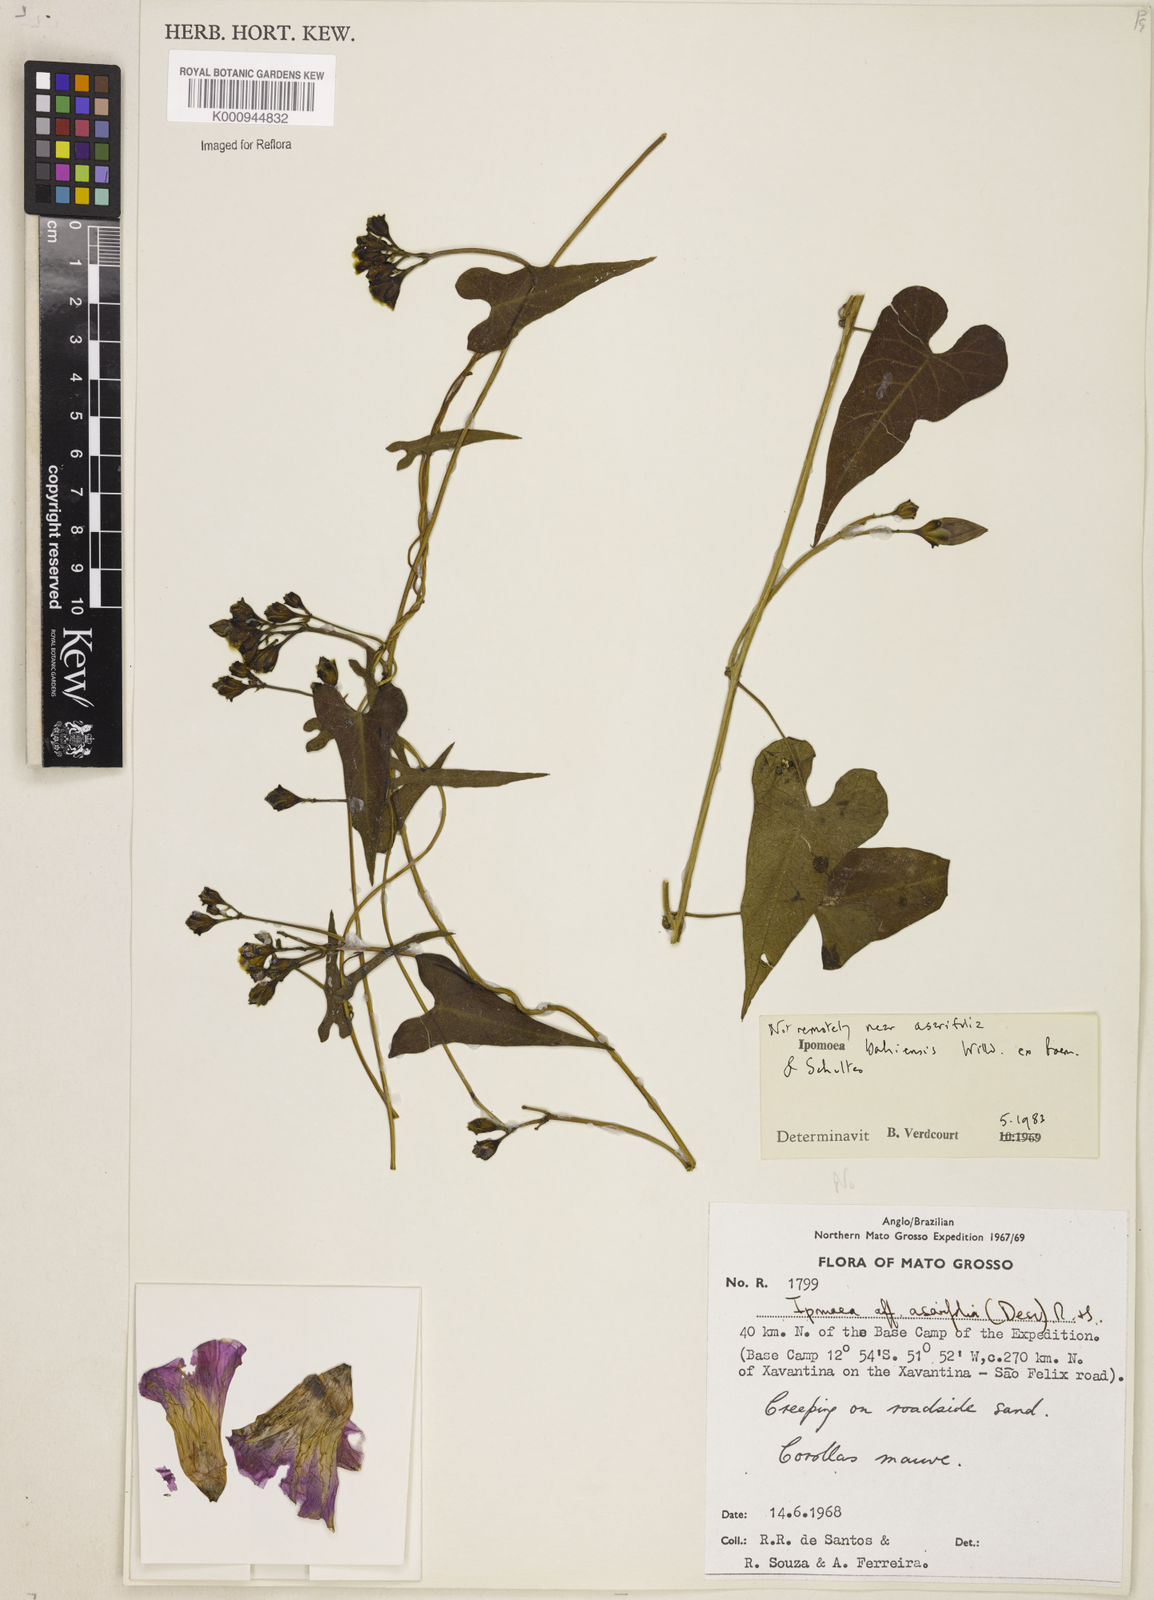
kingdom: Plantae
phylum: Tracheophyta
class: Magnoliopsida
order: Solanales
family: Convolvulaceae
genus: Ipomoea
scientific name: Ipomoea
